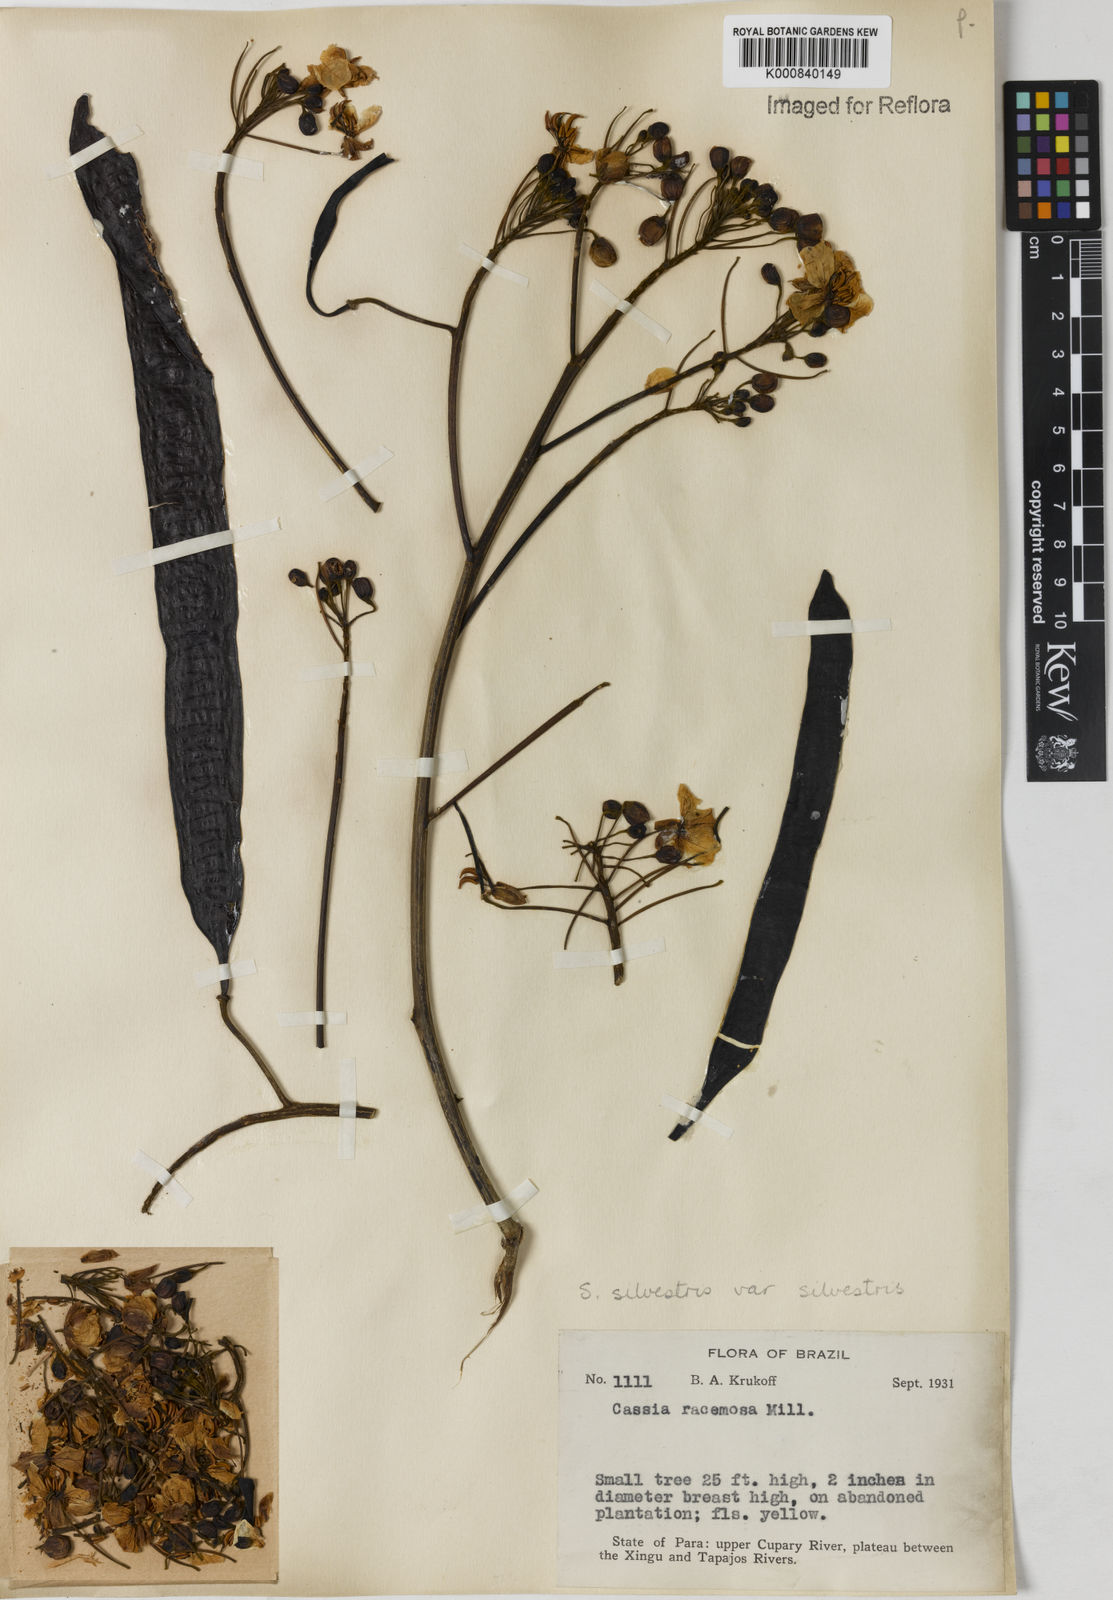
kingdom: Plantae
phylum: Tracheophyta
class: Magnoliopsida
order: Fabales
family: Fabaceae
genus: Senna
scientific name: Senna silvestris
